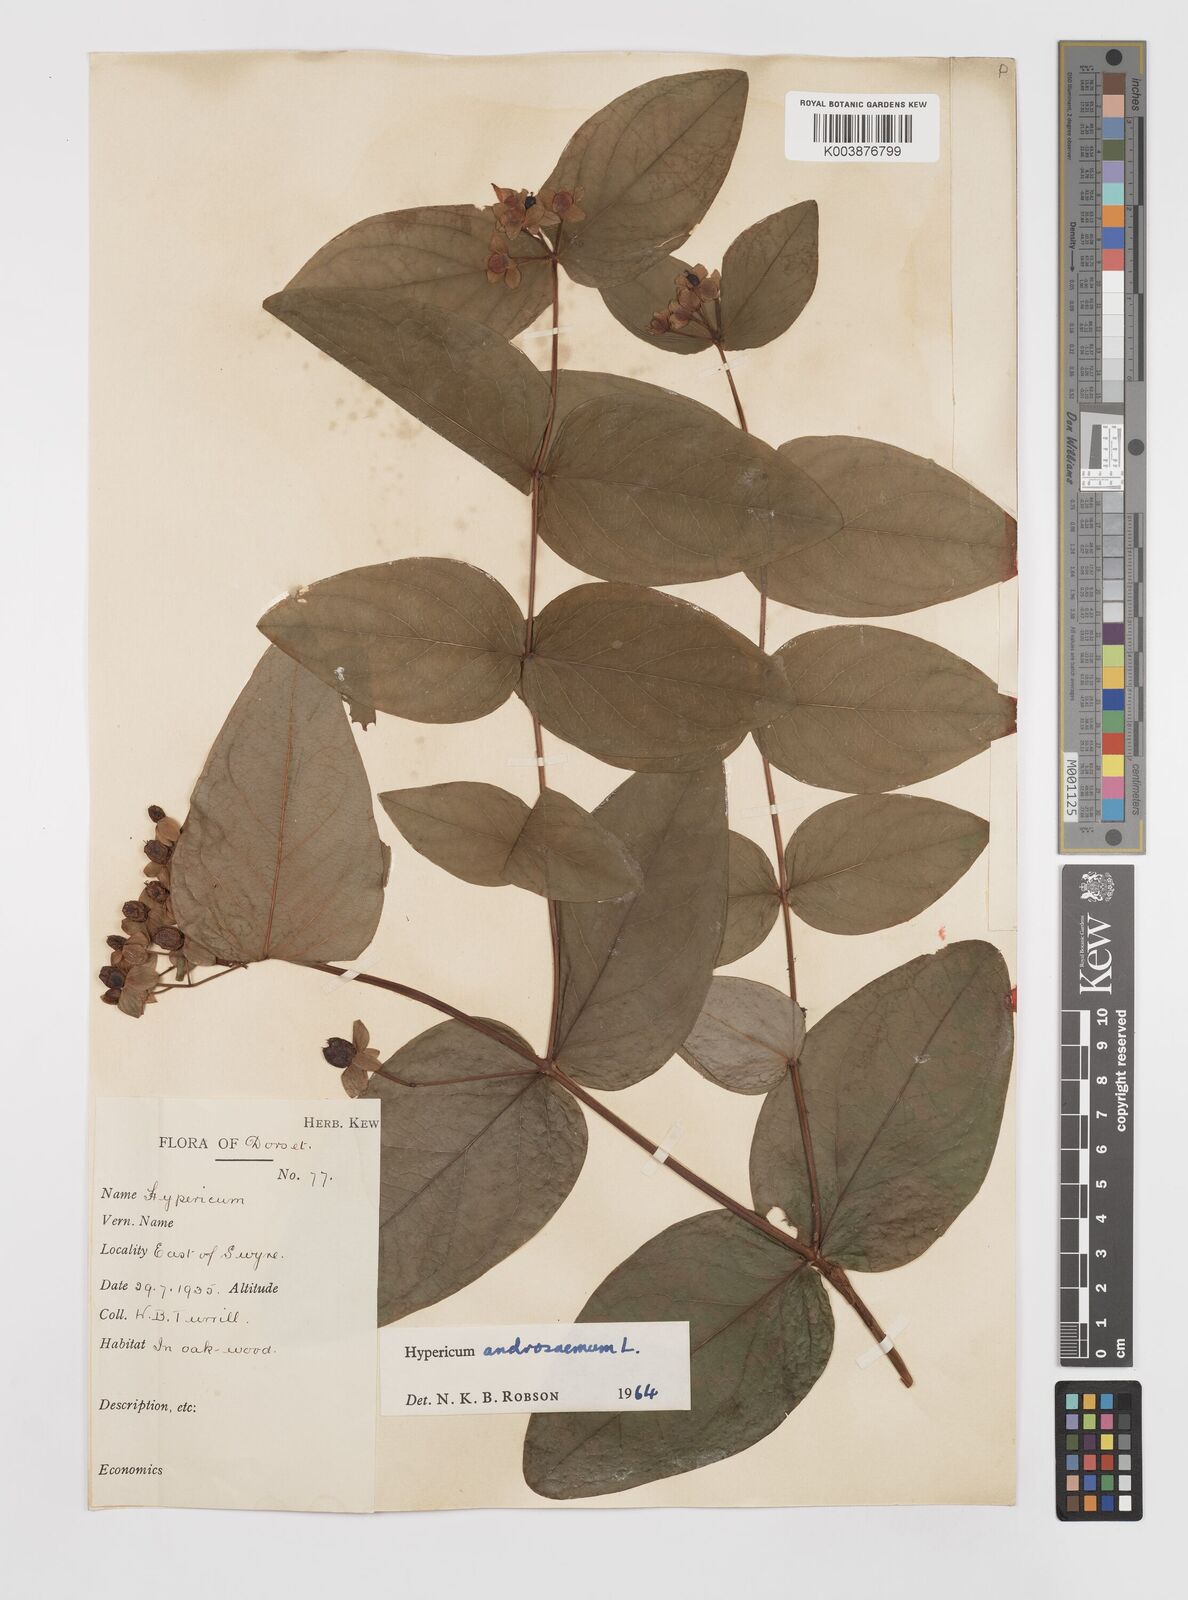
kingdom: Plantae
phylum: Tracheophyta
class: Magnoliopsida
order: Malpighiales
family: Hypericaceae
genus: Hypericum
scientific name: Hypericum androsaemum
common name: Sweet-amber
